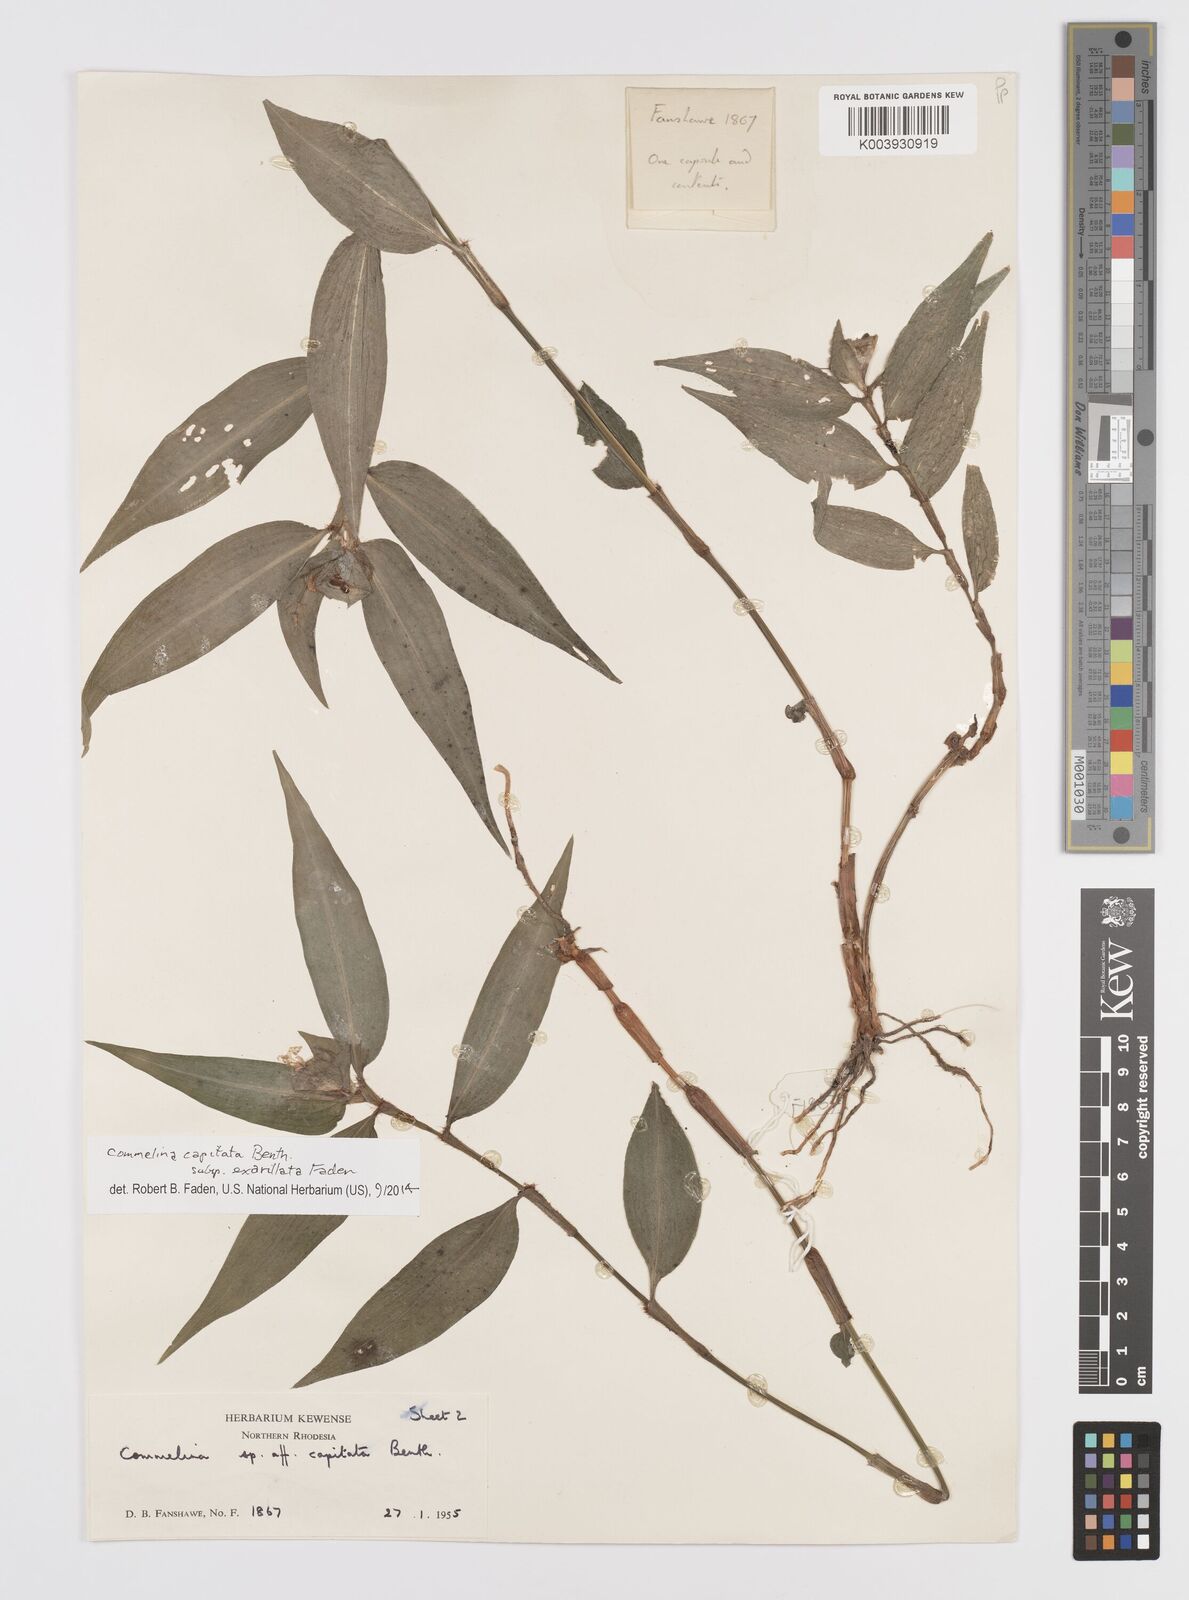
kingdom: Plantae
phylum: Tracheophyta
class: Liliopsida
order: Commelinales
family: Commelinaceae
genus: Commelina
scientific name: Commelina capitata
